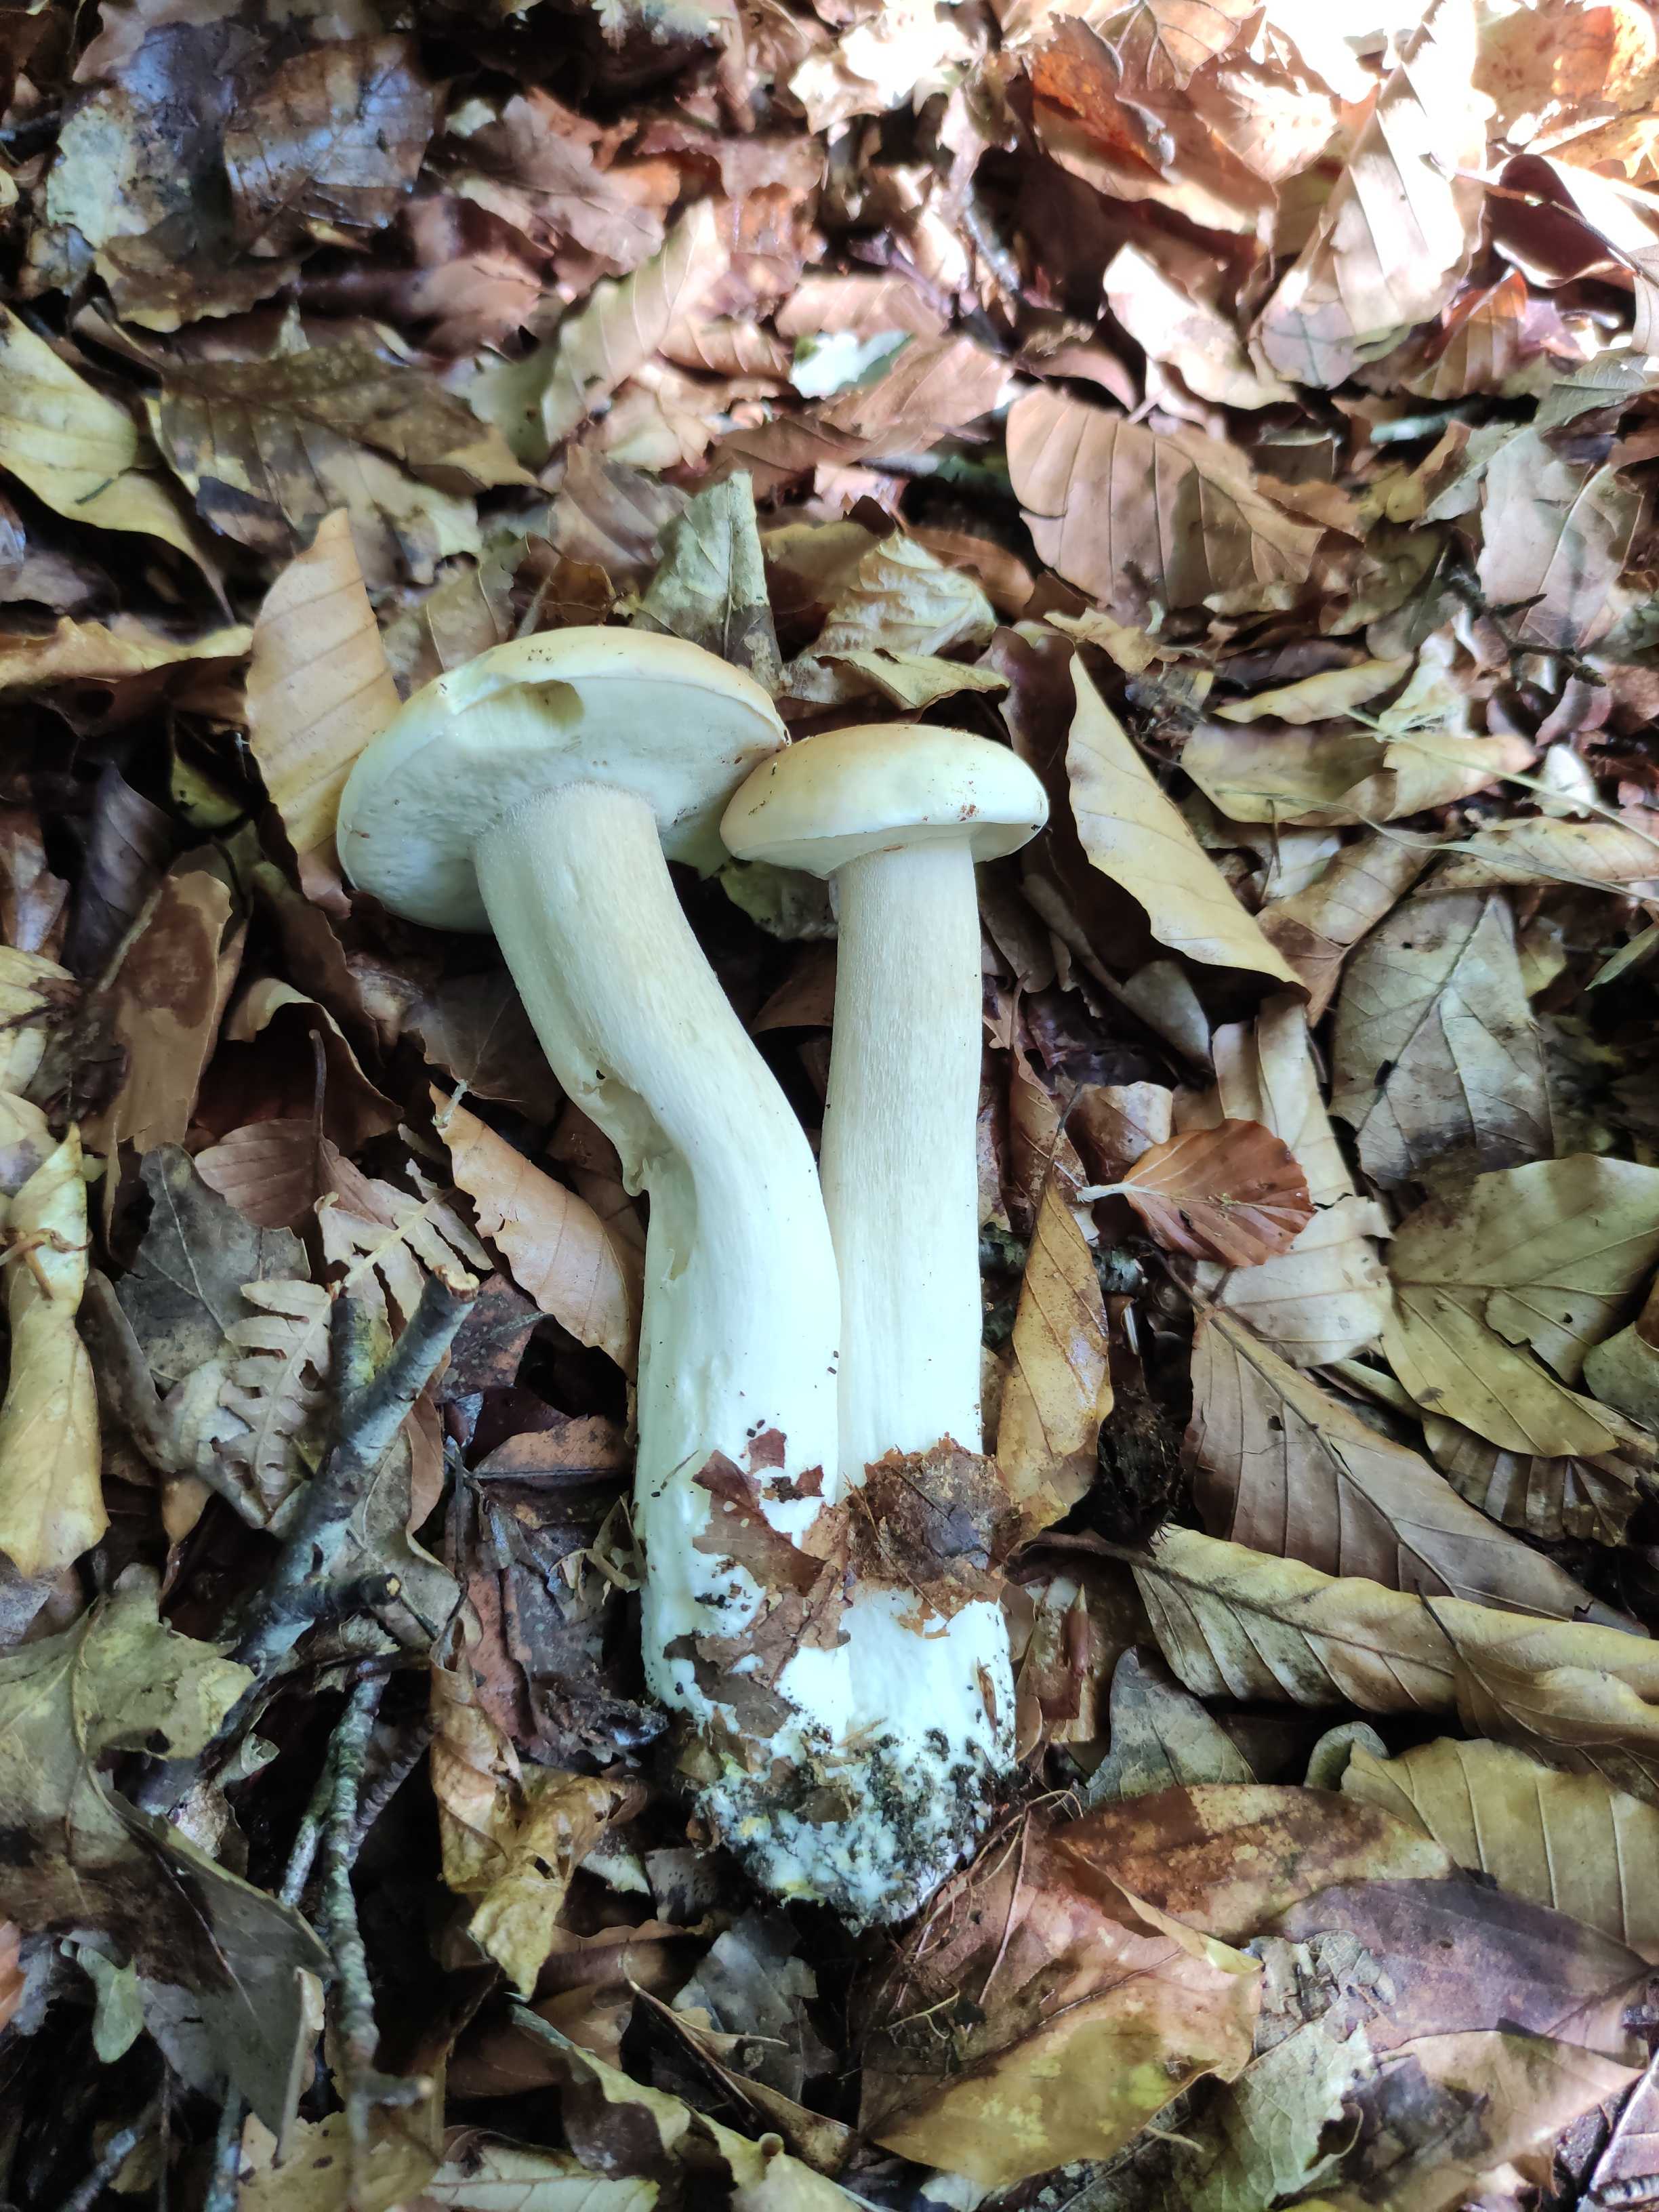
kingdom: Fungi
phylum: Basidiomycota
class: Agaricomycetes
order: Boletales
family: Boletaceae
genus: Boletus
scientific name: Boletus edulis
